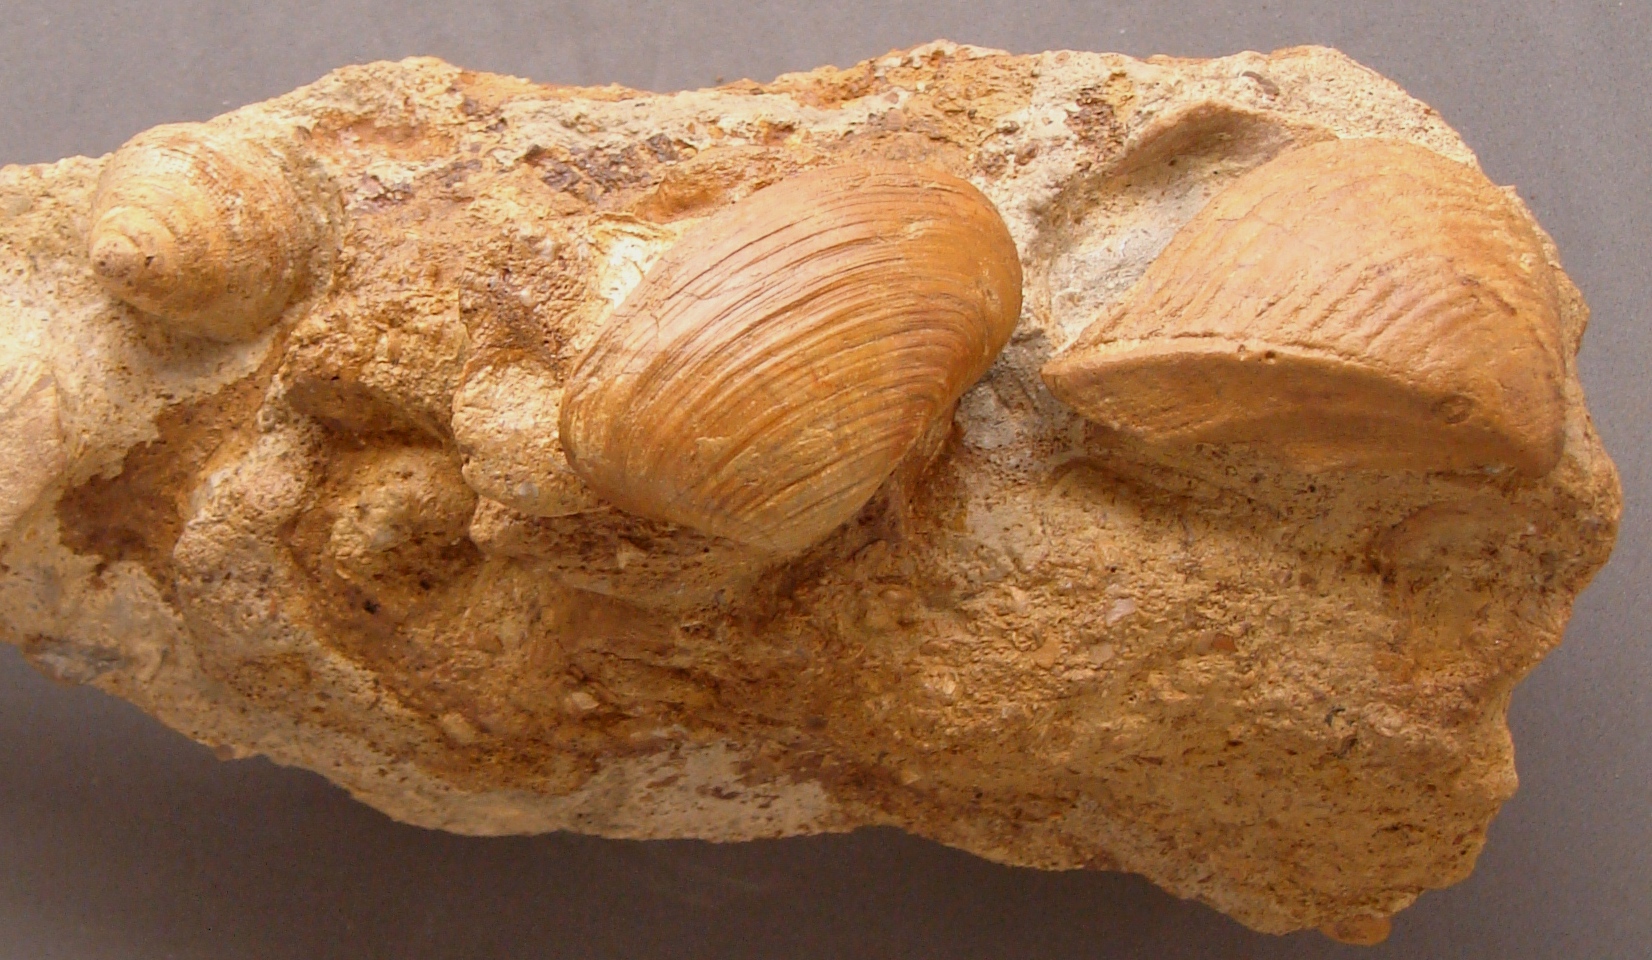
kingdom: Animalia
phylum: Mollusca
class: Gastropoda
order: Pleurotomariida
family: Pleurotomariidae
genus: Bathrotomaria
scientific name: Bathrotomaria Pleurotomaria subreticulata
